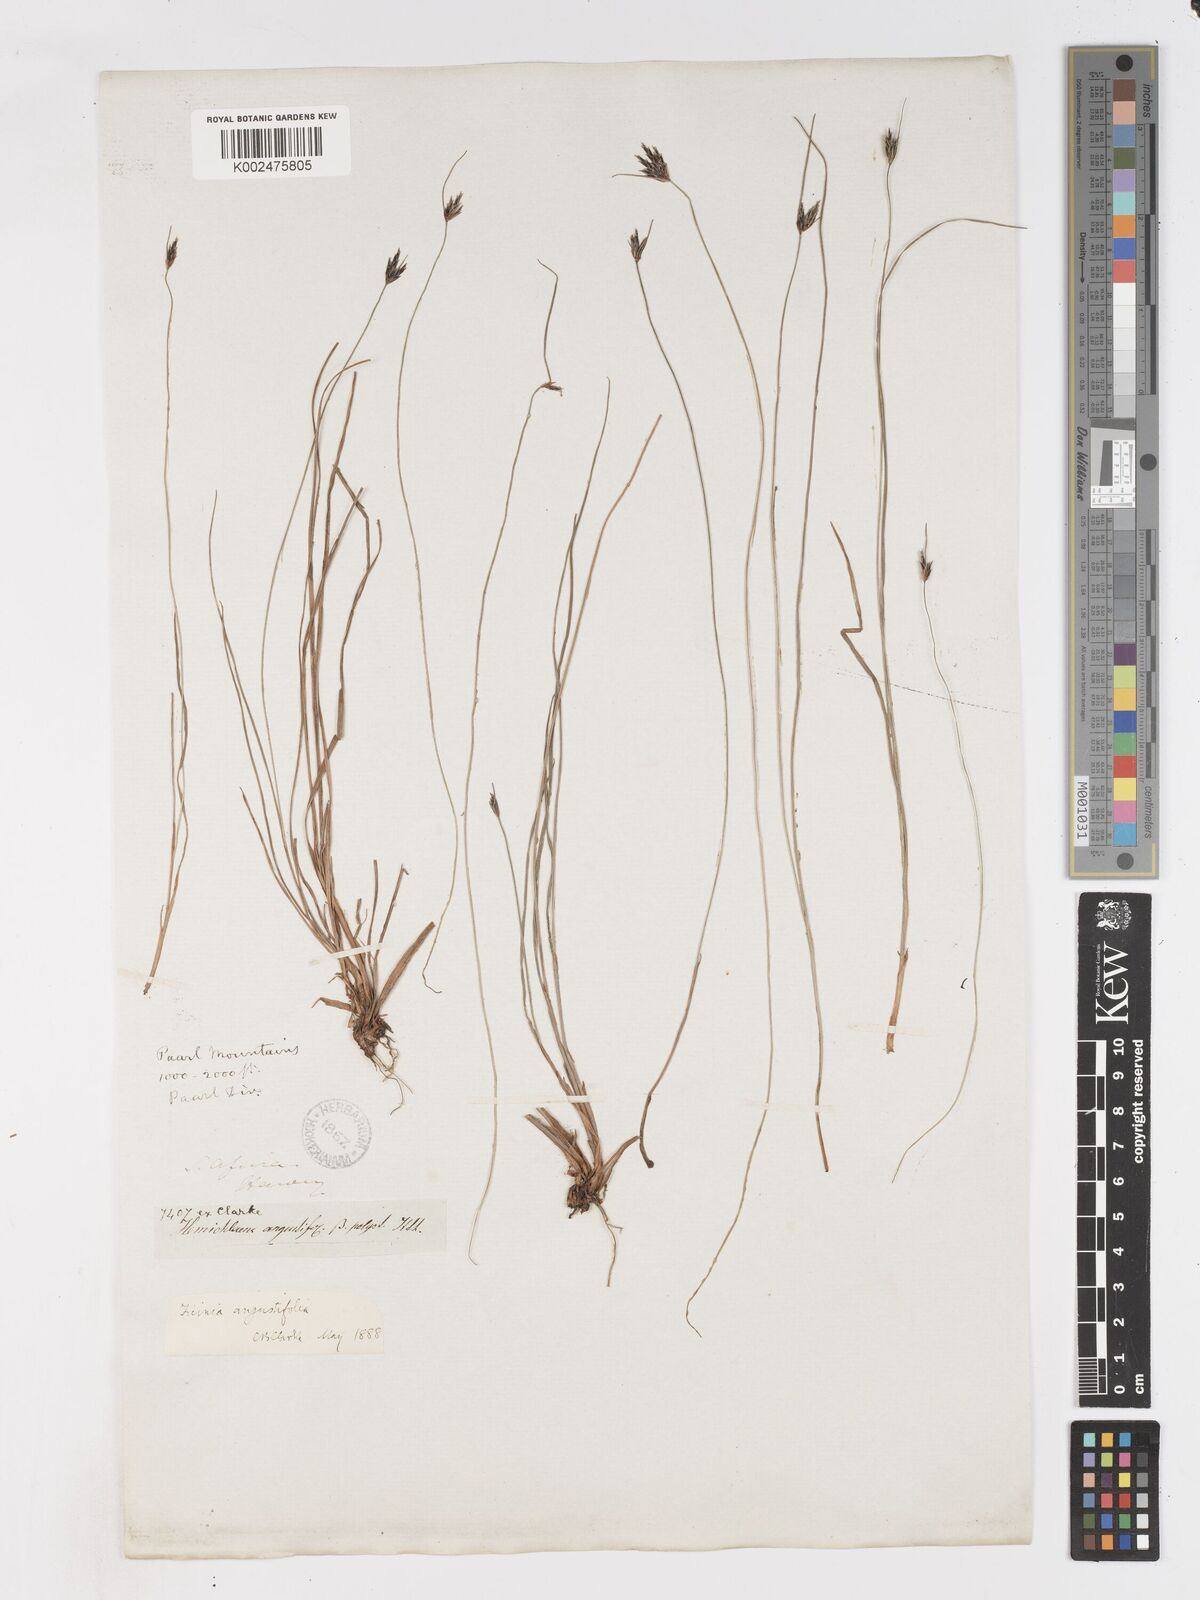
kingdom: Plantae
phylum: Tracheophyta
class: Liliopsida
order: Poales
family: Cyperaceae
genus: Ficinia
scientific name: Ficinia angustifolia
